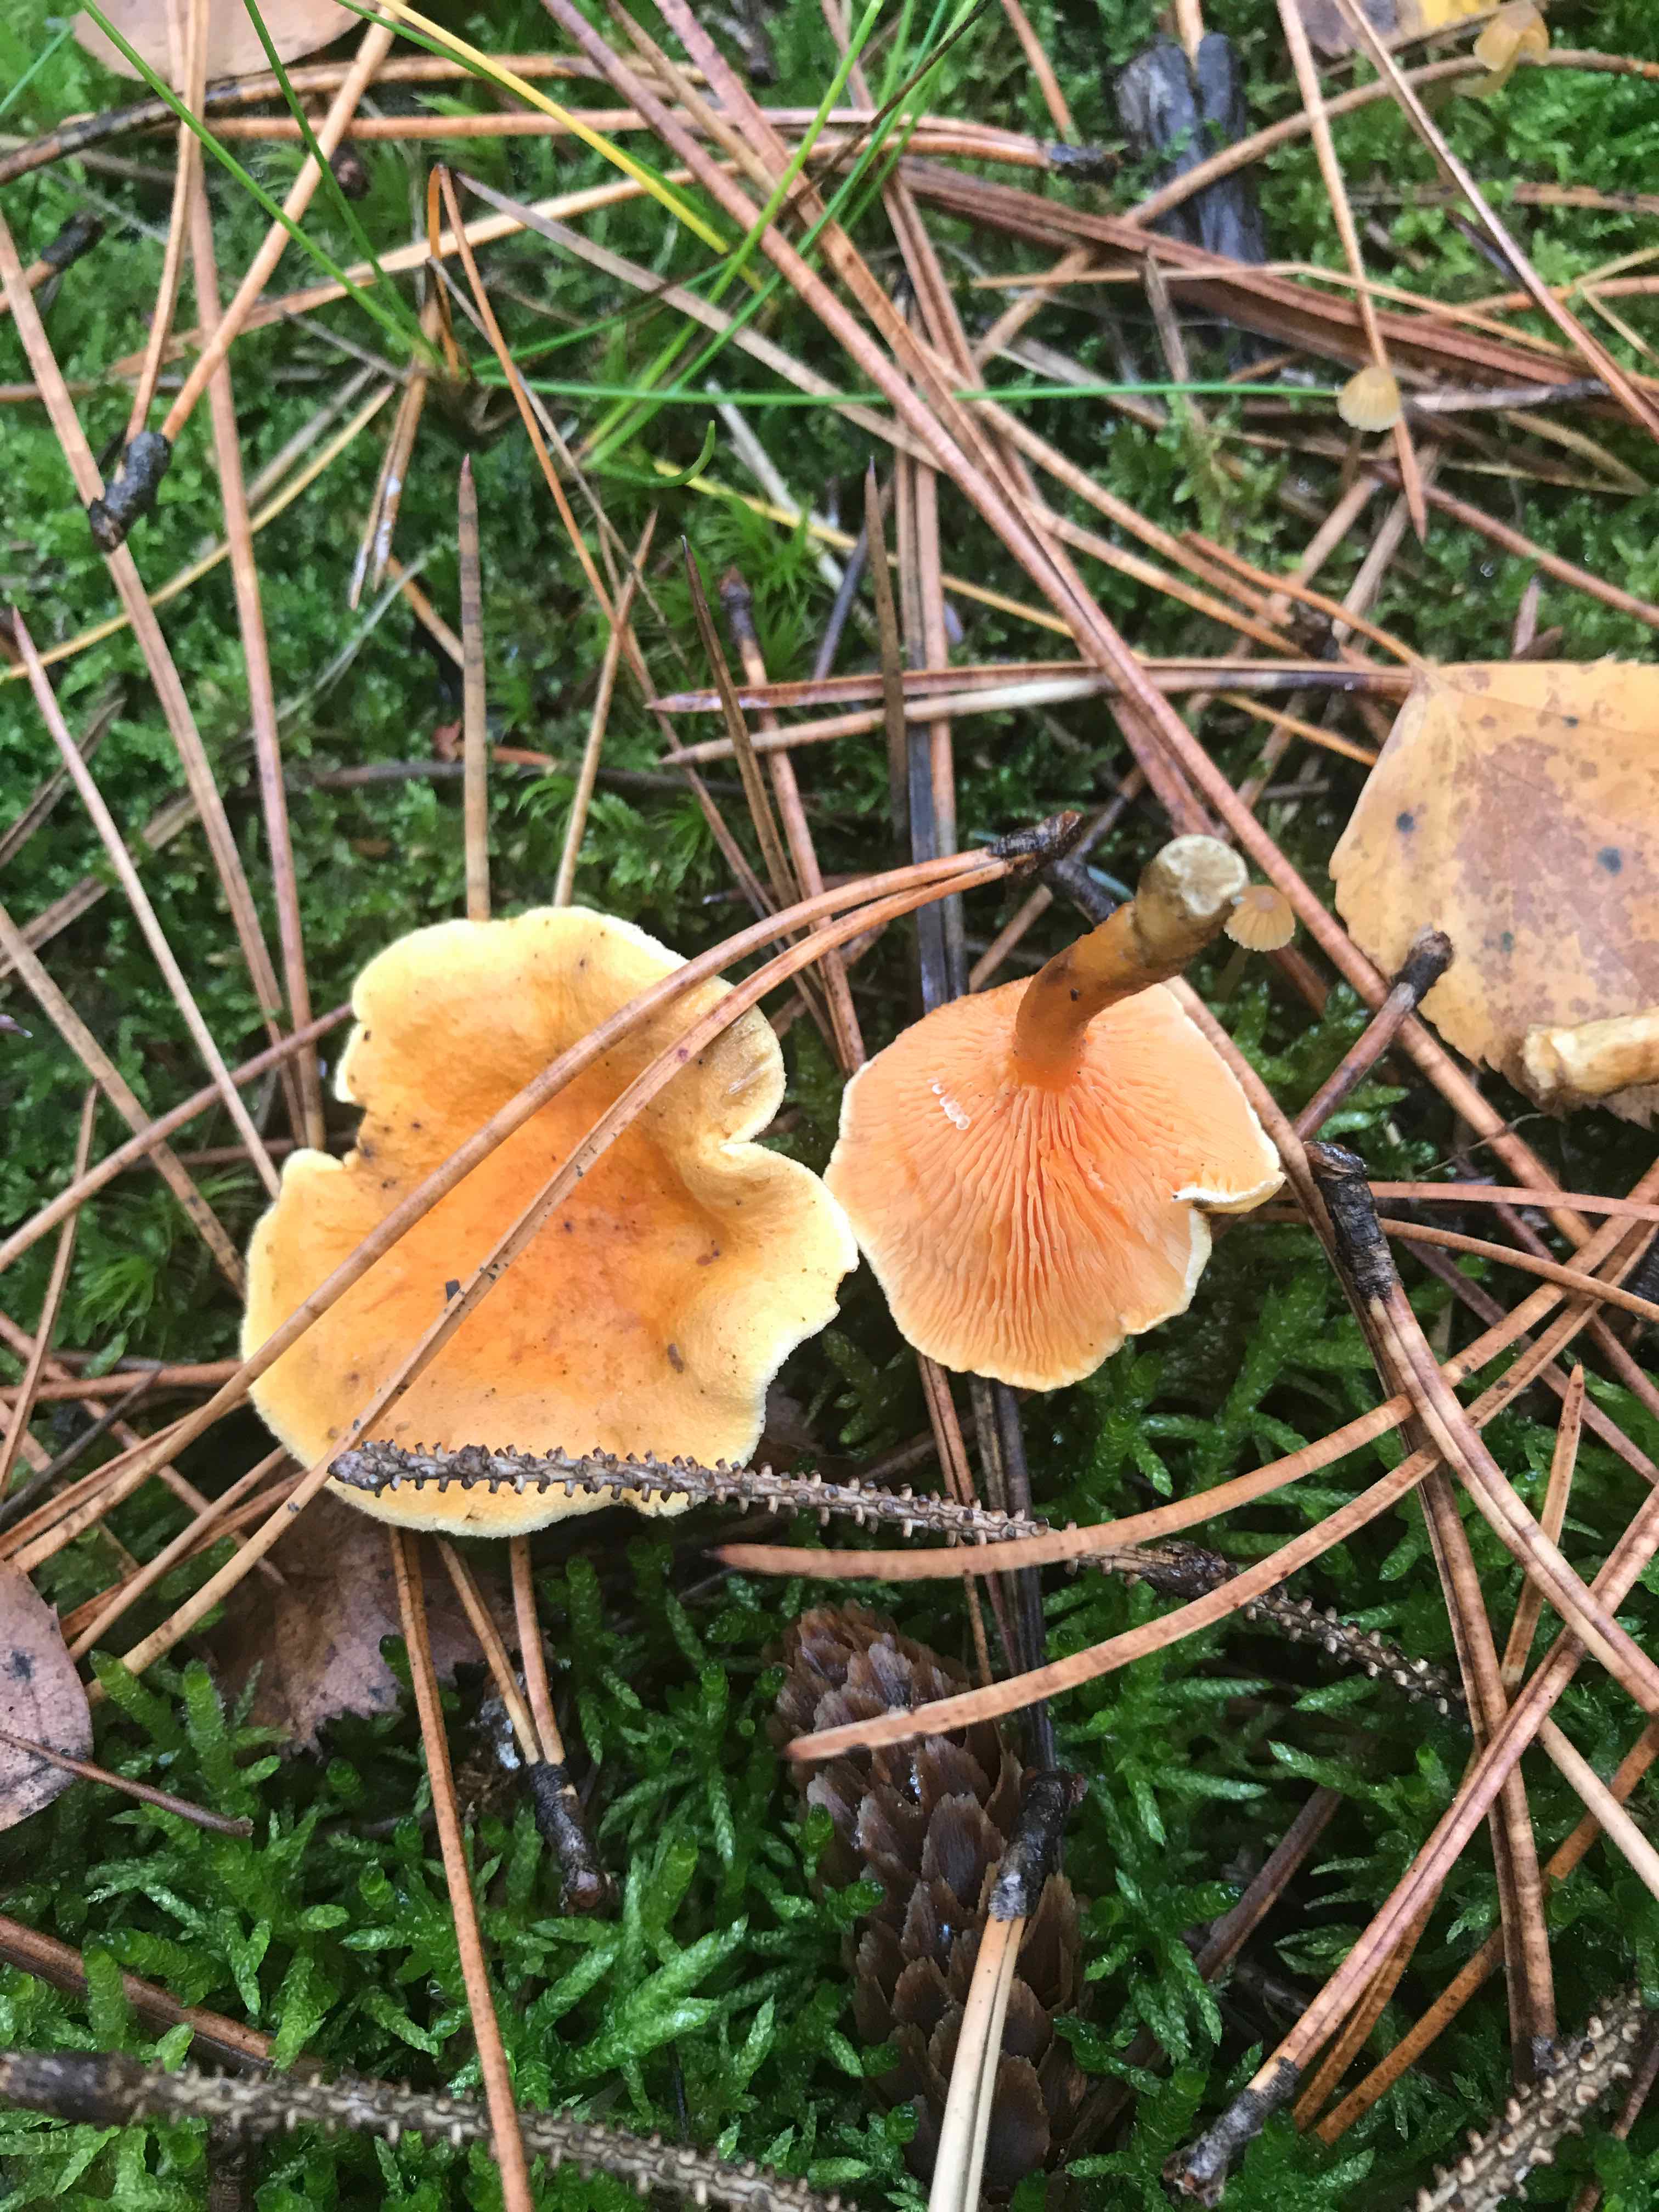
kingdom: Fungi
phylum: Basidiomycota
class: Agaricomycetes
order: Boletales
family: Hygrophoropsidaceae
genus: Hygrophoropsis
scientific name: Hygrophoropsis aurantiaca
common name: almindelig orangekantarel
